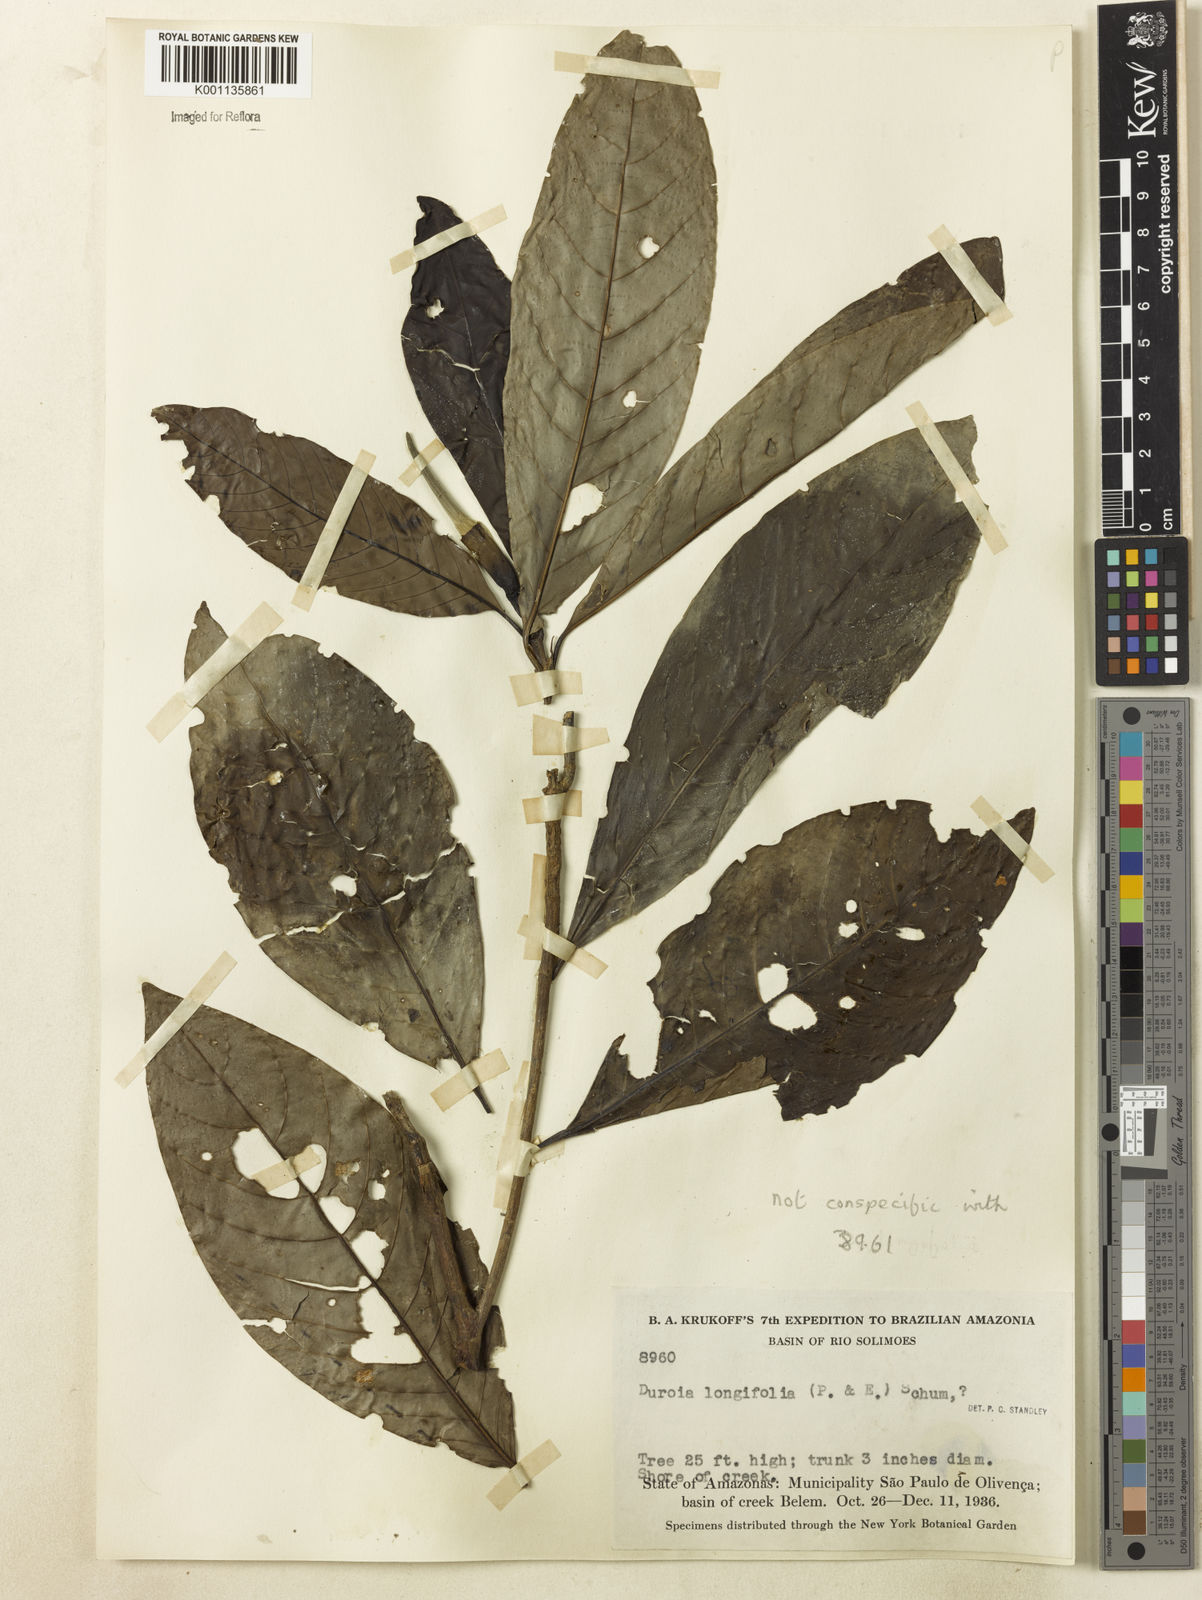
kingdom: Plantae
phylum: Tracheophyta
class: Magnoliopsida
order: Gentianales
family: Rubiaceae
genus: Duroia
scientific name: Duroia longifolia
